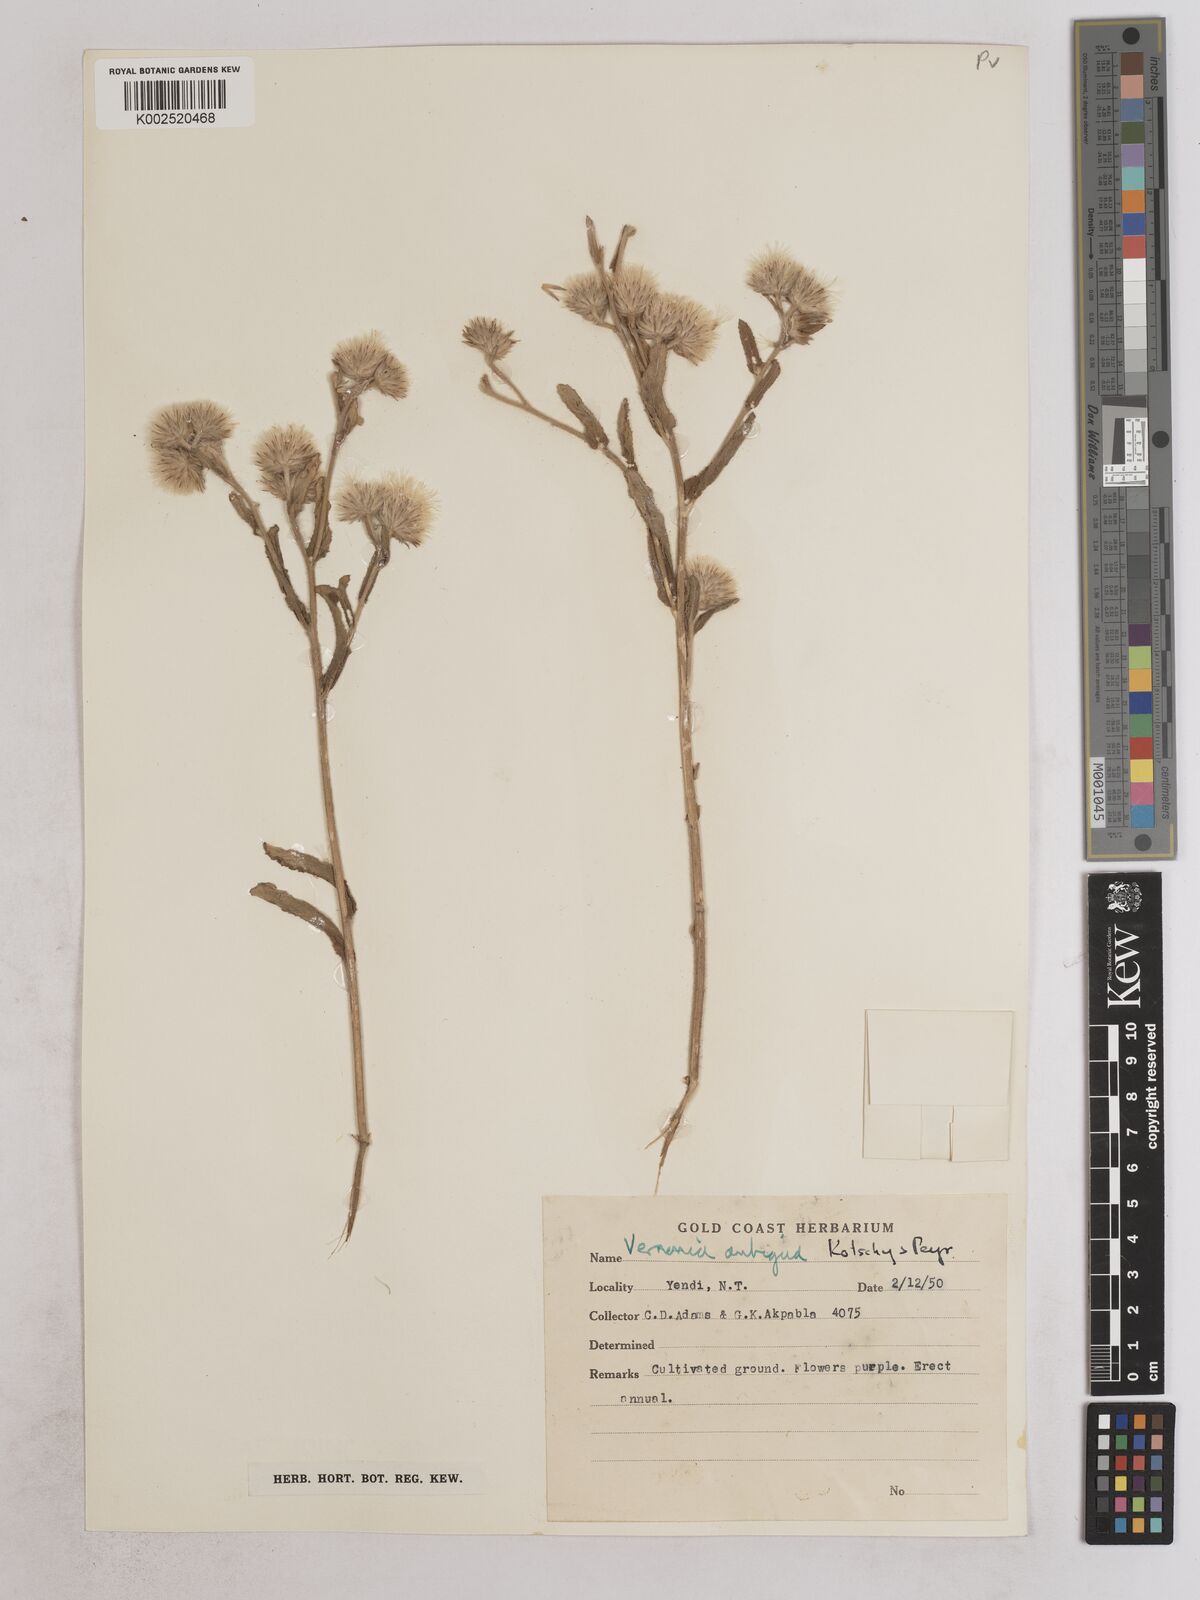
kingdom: Plantae
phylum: Tracheophyta
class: Magnoliopsida
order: Asterales
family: Asteraceae
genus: Vernoniastrum
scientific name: Vernoniastrum ambiguum
